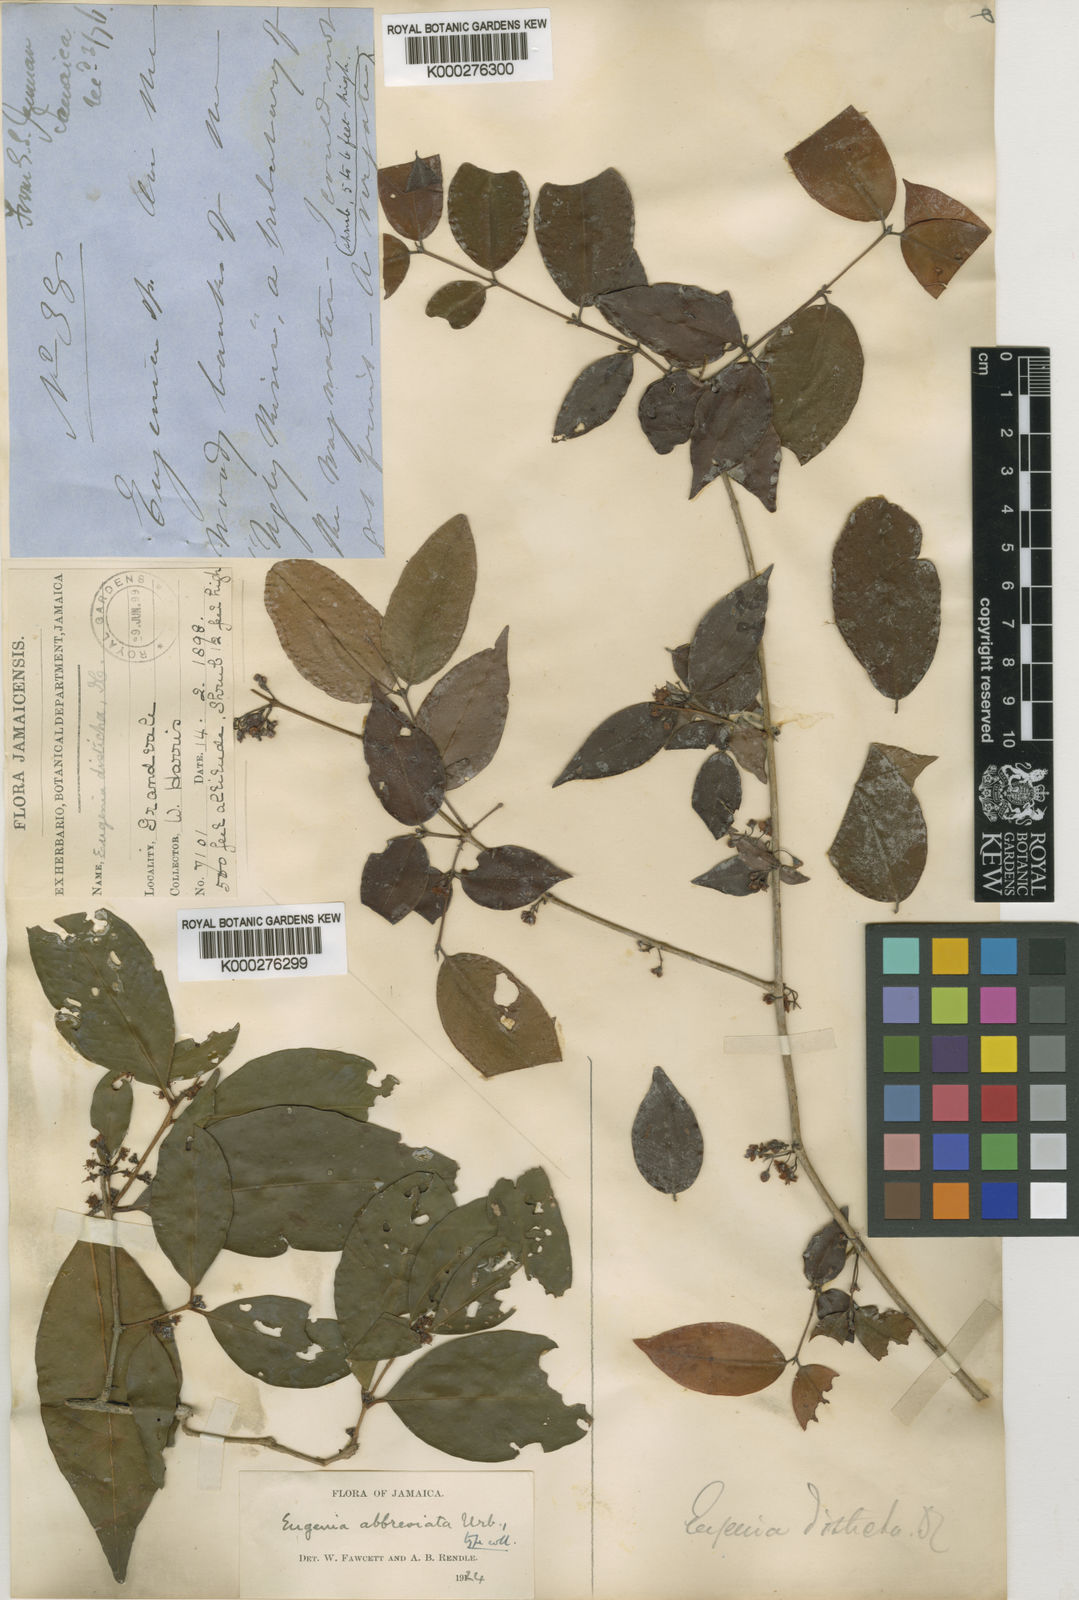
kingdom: Plantae
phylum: Tracheophyta
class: Magnoliopsida
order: Myrtales
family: Myrtaceae
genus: Eugenia
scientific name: Eugenia abbreviata
